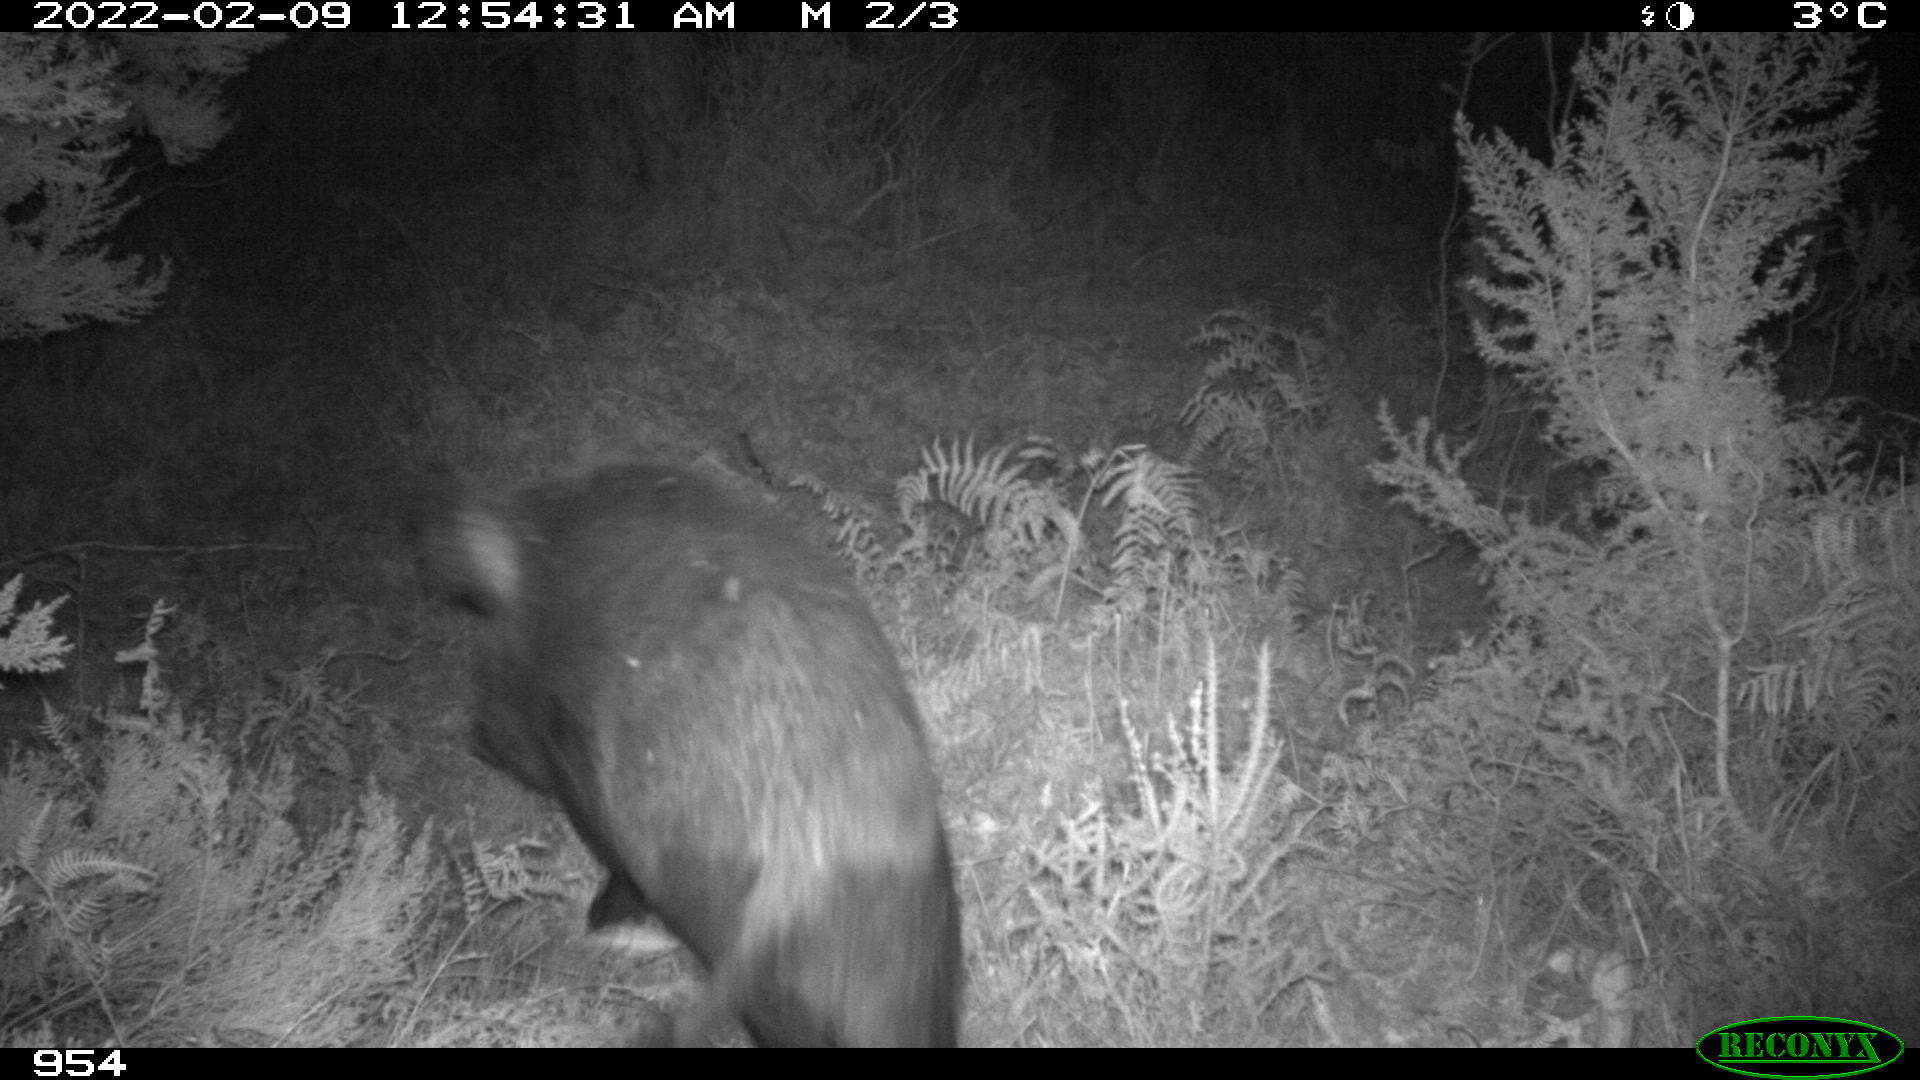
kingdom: Animalia
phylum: Chordata
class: Mammalia
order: Artiodactyla
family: Suidae
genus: Sus
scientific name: Sus scrofa
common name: Wild boar
